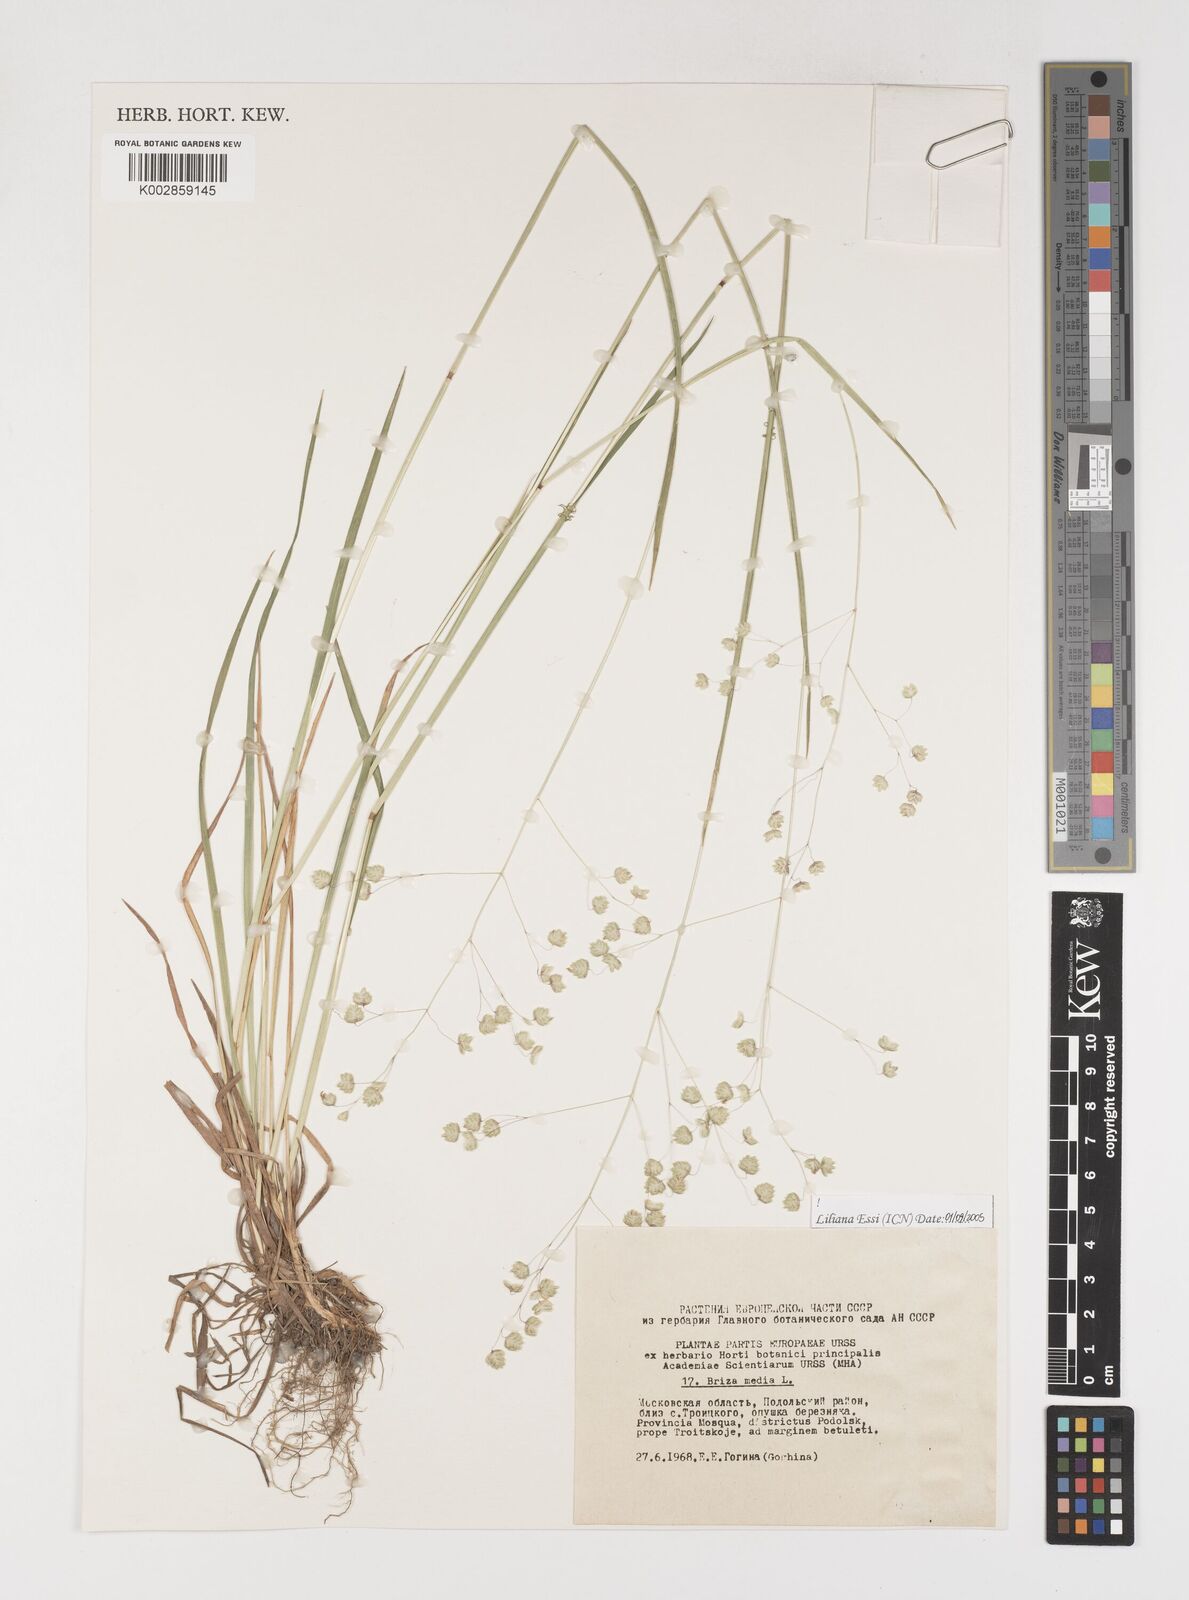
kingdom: Plantae
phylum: Tracheophyta
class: Liliopsida
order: Poales
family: Poaceae
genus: Briza
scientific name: Briza media
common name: Quaking grass
